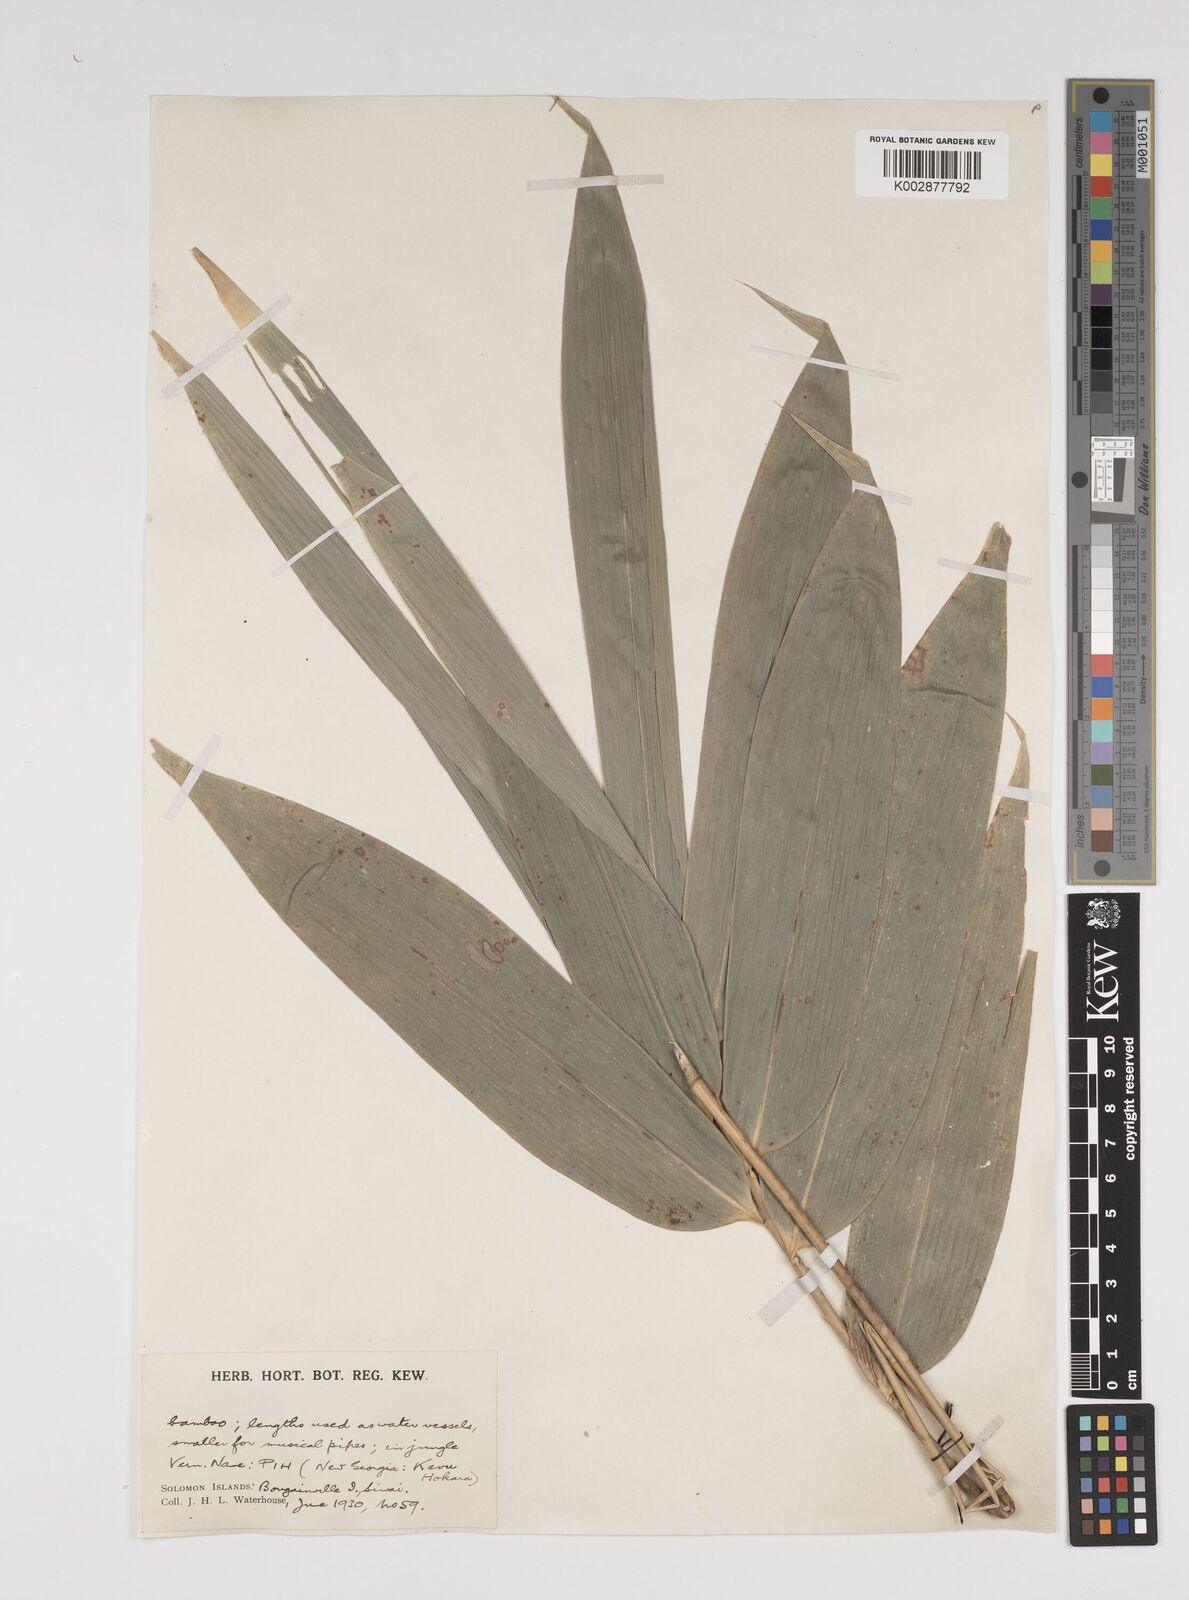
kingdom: Plantae
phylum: Tracheophyta
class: Liliopsida
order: Poales
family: Poaceae
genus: Bambusa
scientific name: Bambusa multiplex
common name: Hedge bamboo
